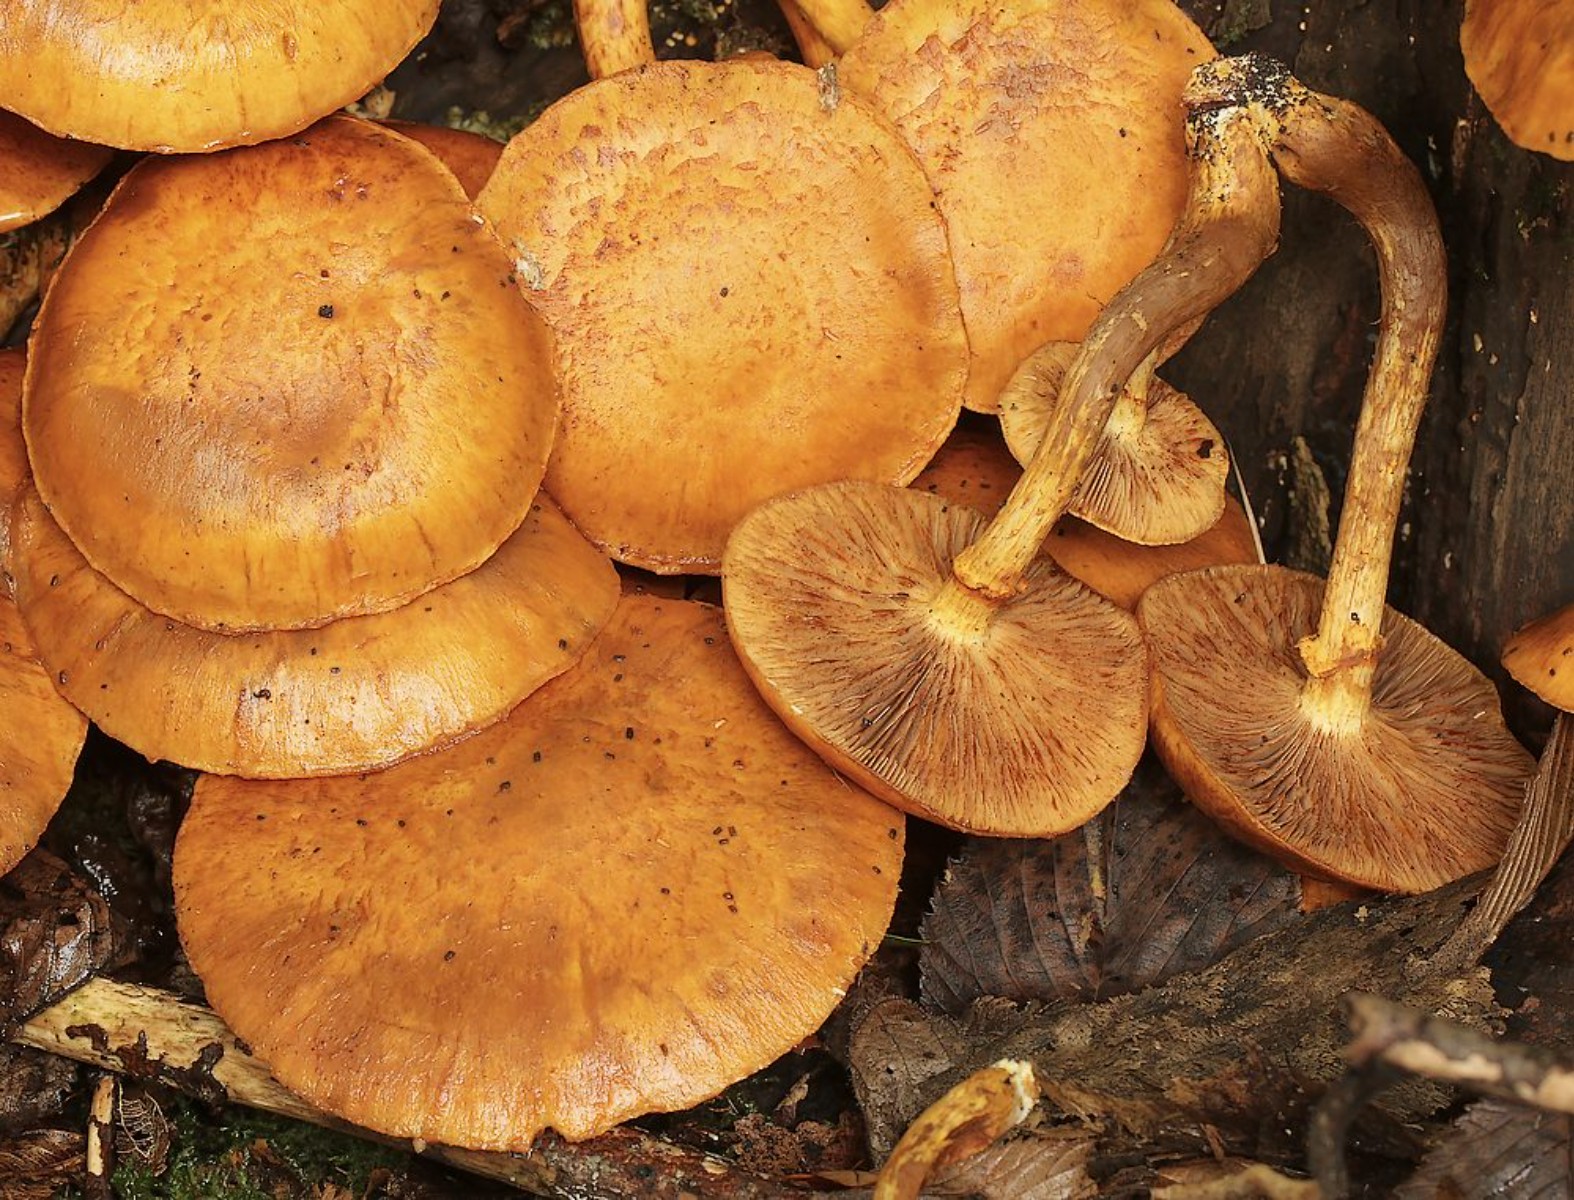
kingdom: Fungi
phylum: Basidiomycota
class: Agaricomycetes
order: Agaricales
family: Hymenogastraceae
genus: Gymnopilus
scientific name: Gymnopilus spectabilis
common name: fibret flammehat
